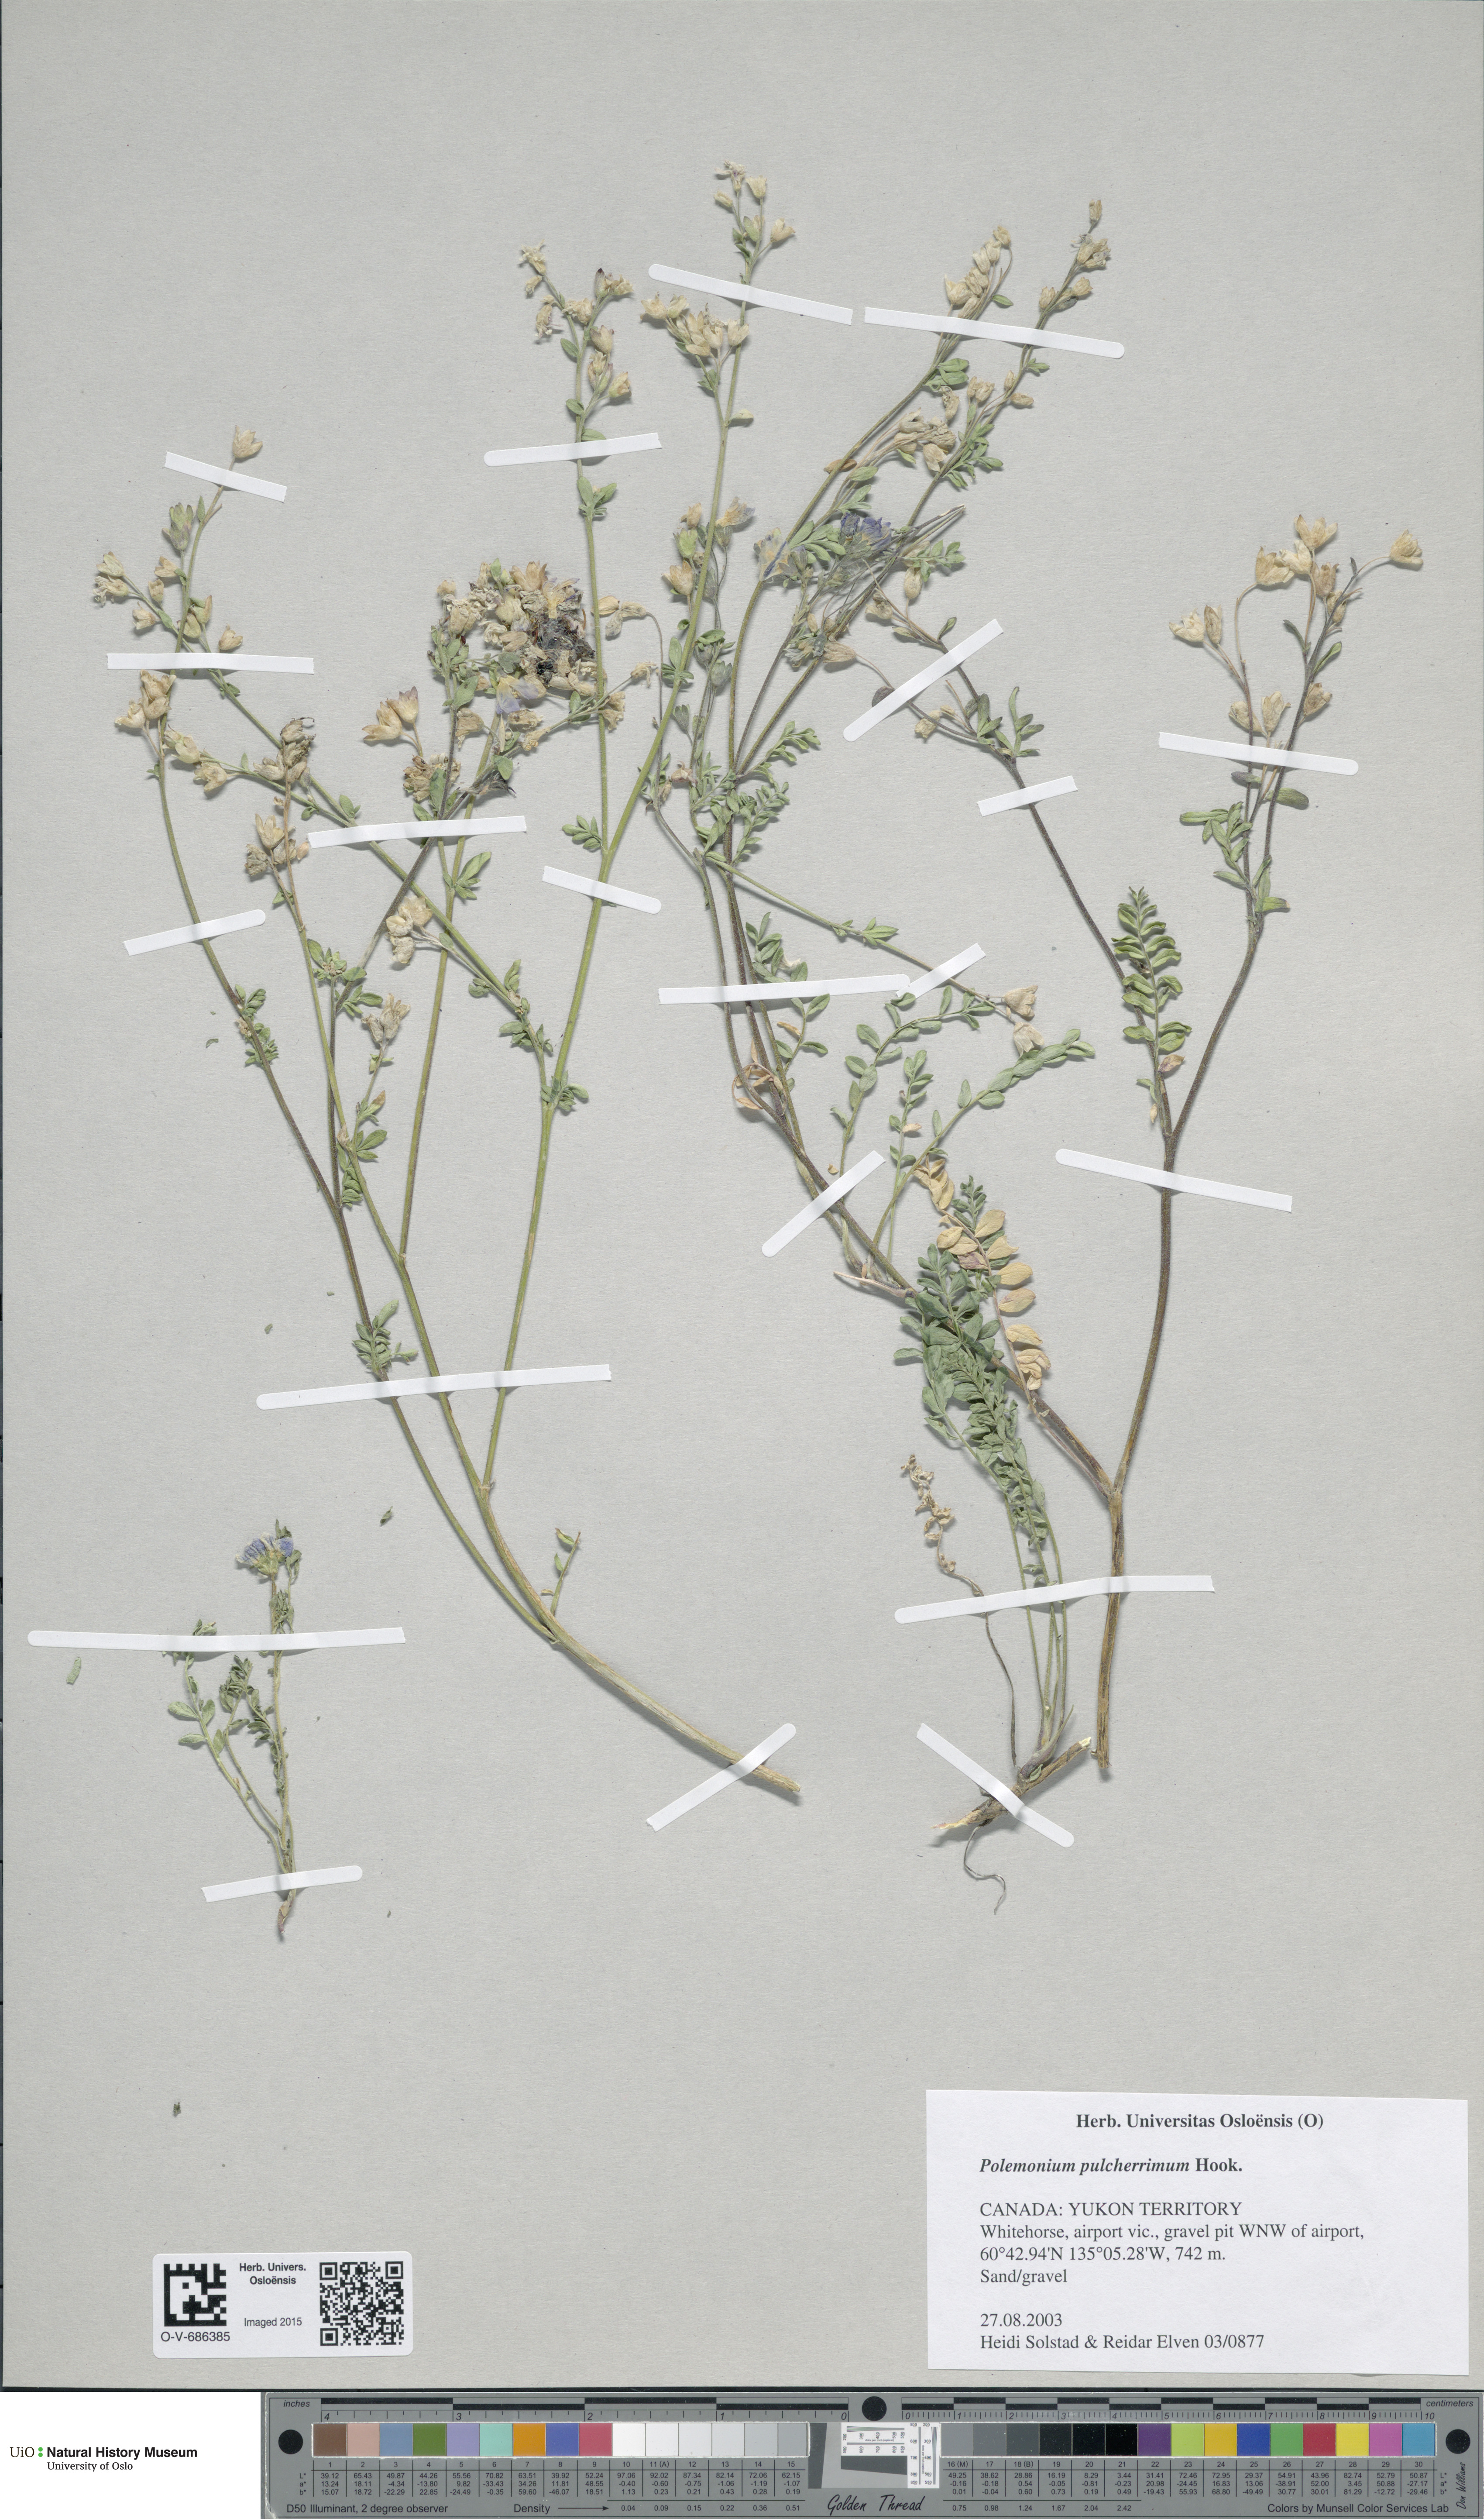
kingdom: Plantae
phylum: Tracheophyta
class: Magnoliopsida
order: Ericales
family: Polemoniaceae
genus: Polemonium
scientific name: Polemonium pulcherrimum
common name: Short jacob's-ladder
